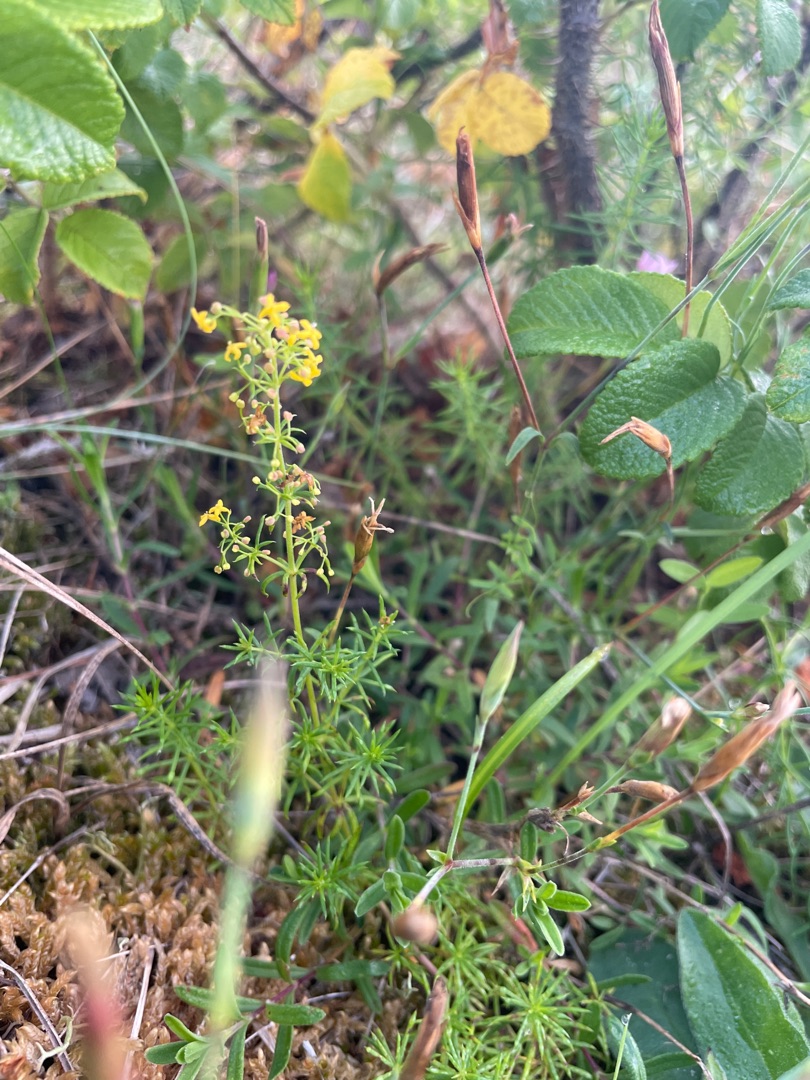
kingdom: Plantae
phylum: Tracheophyta
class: Magnoliopsida
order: Gentianales
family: Rubiaceae
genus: Galium
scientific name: Galium verum
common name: Gul snerre
